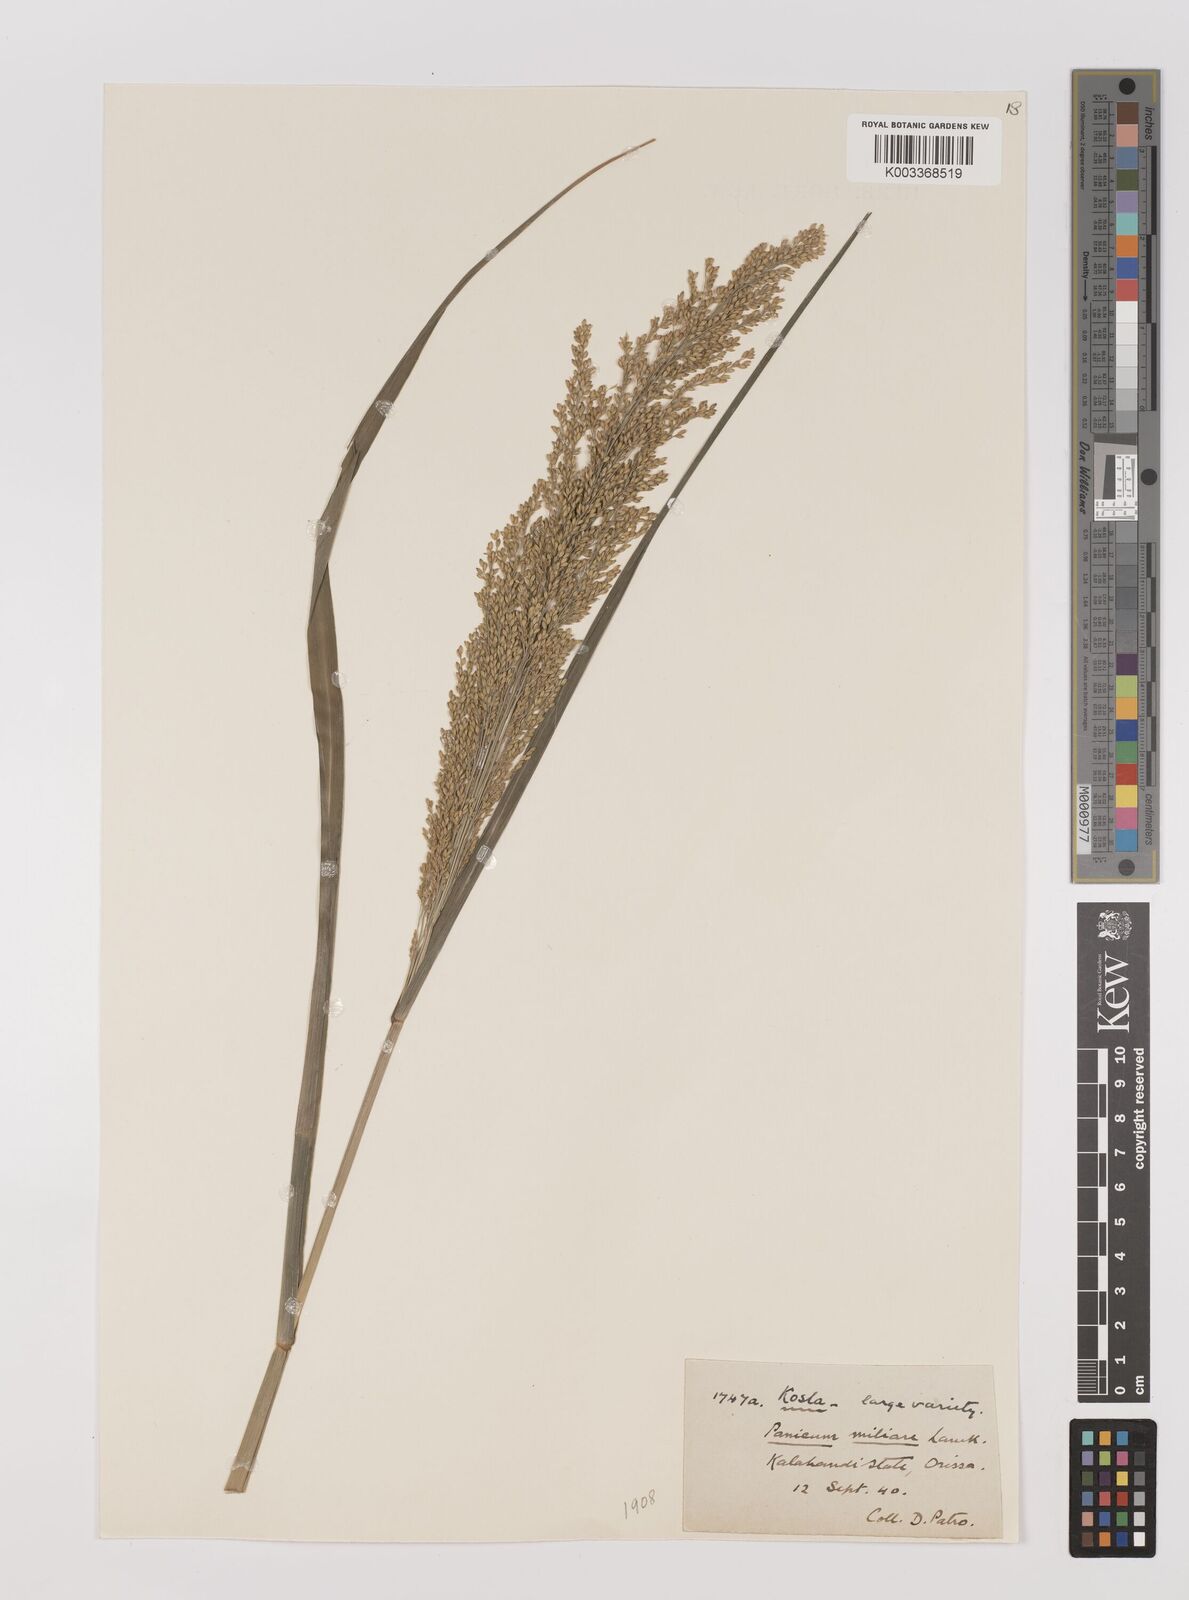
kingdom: Plantae
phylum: Tracheophyta
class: Liliopsida
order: Poales
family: Poaceae
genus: Panicum
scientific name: Panicum sumatrense
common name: Little millet
